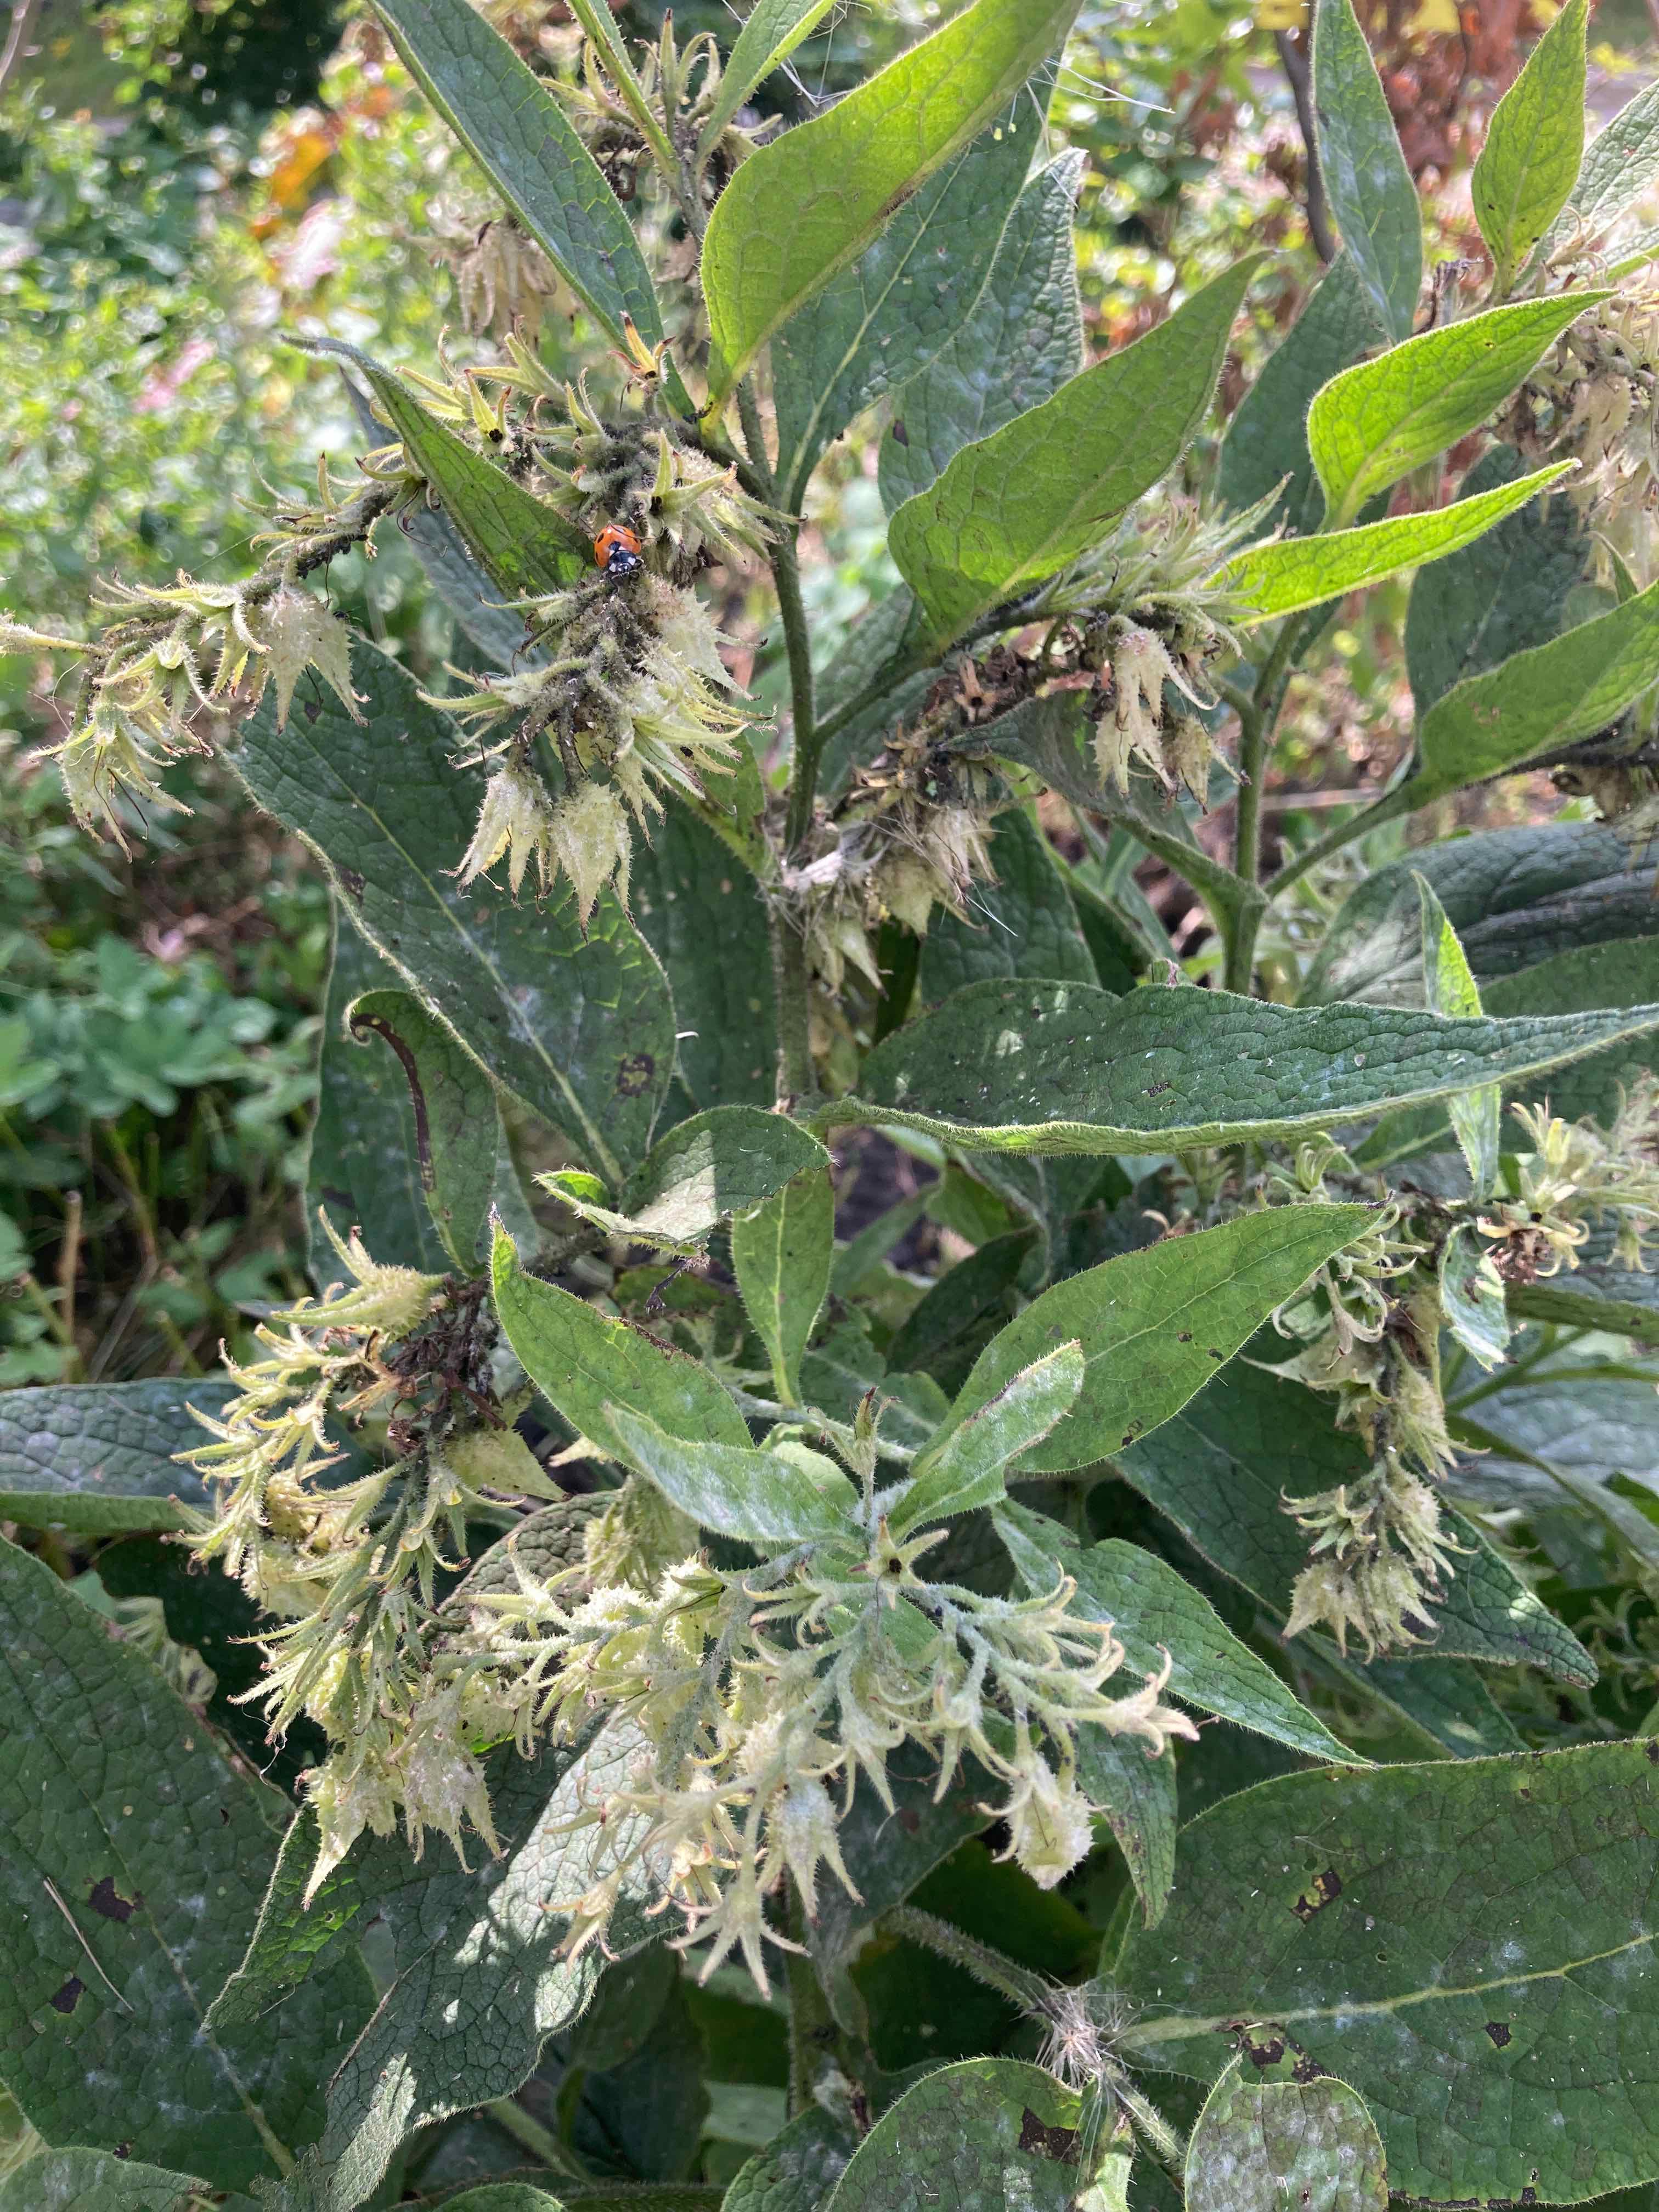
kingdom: Fungi
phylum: Ascomycota
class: Leotiomycetes
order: Helotiales
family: Erysiphaceae
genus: Golovinomyces
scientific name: Golovinomyces asperifoliorum
